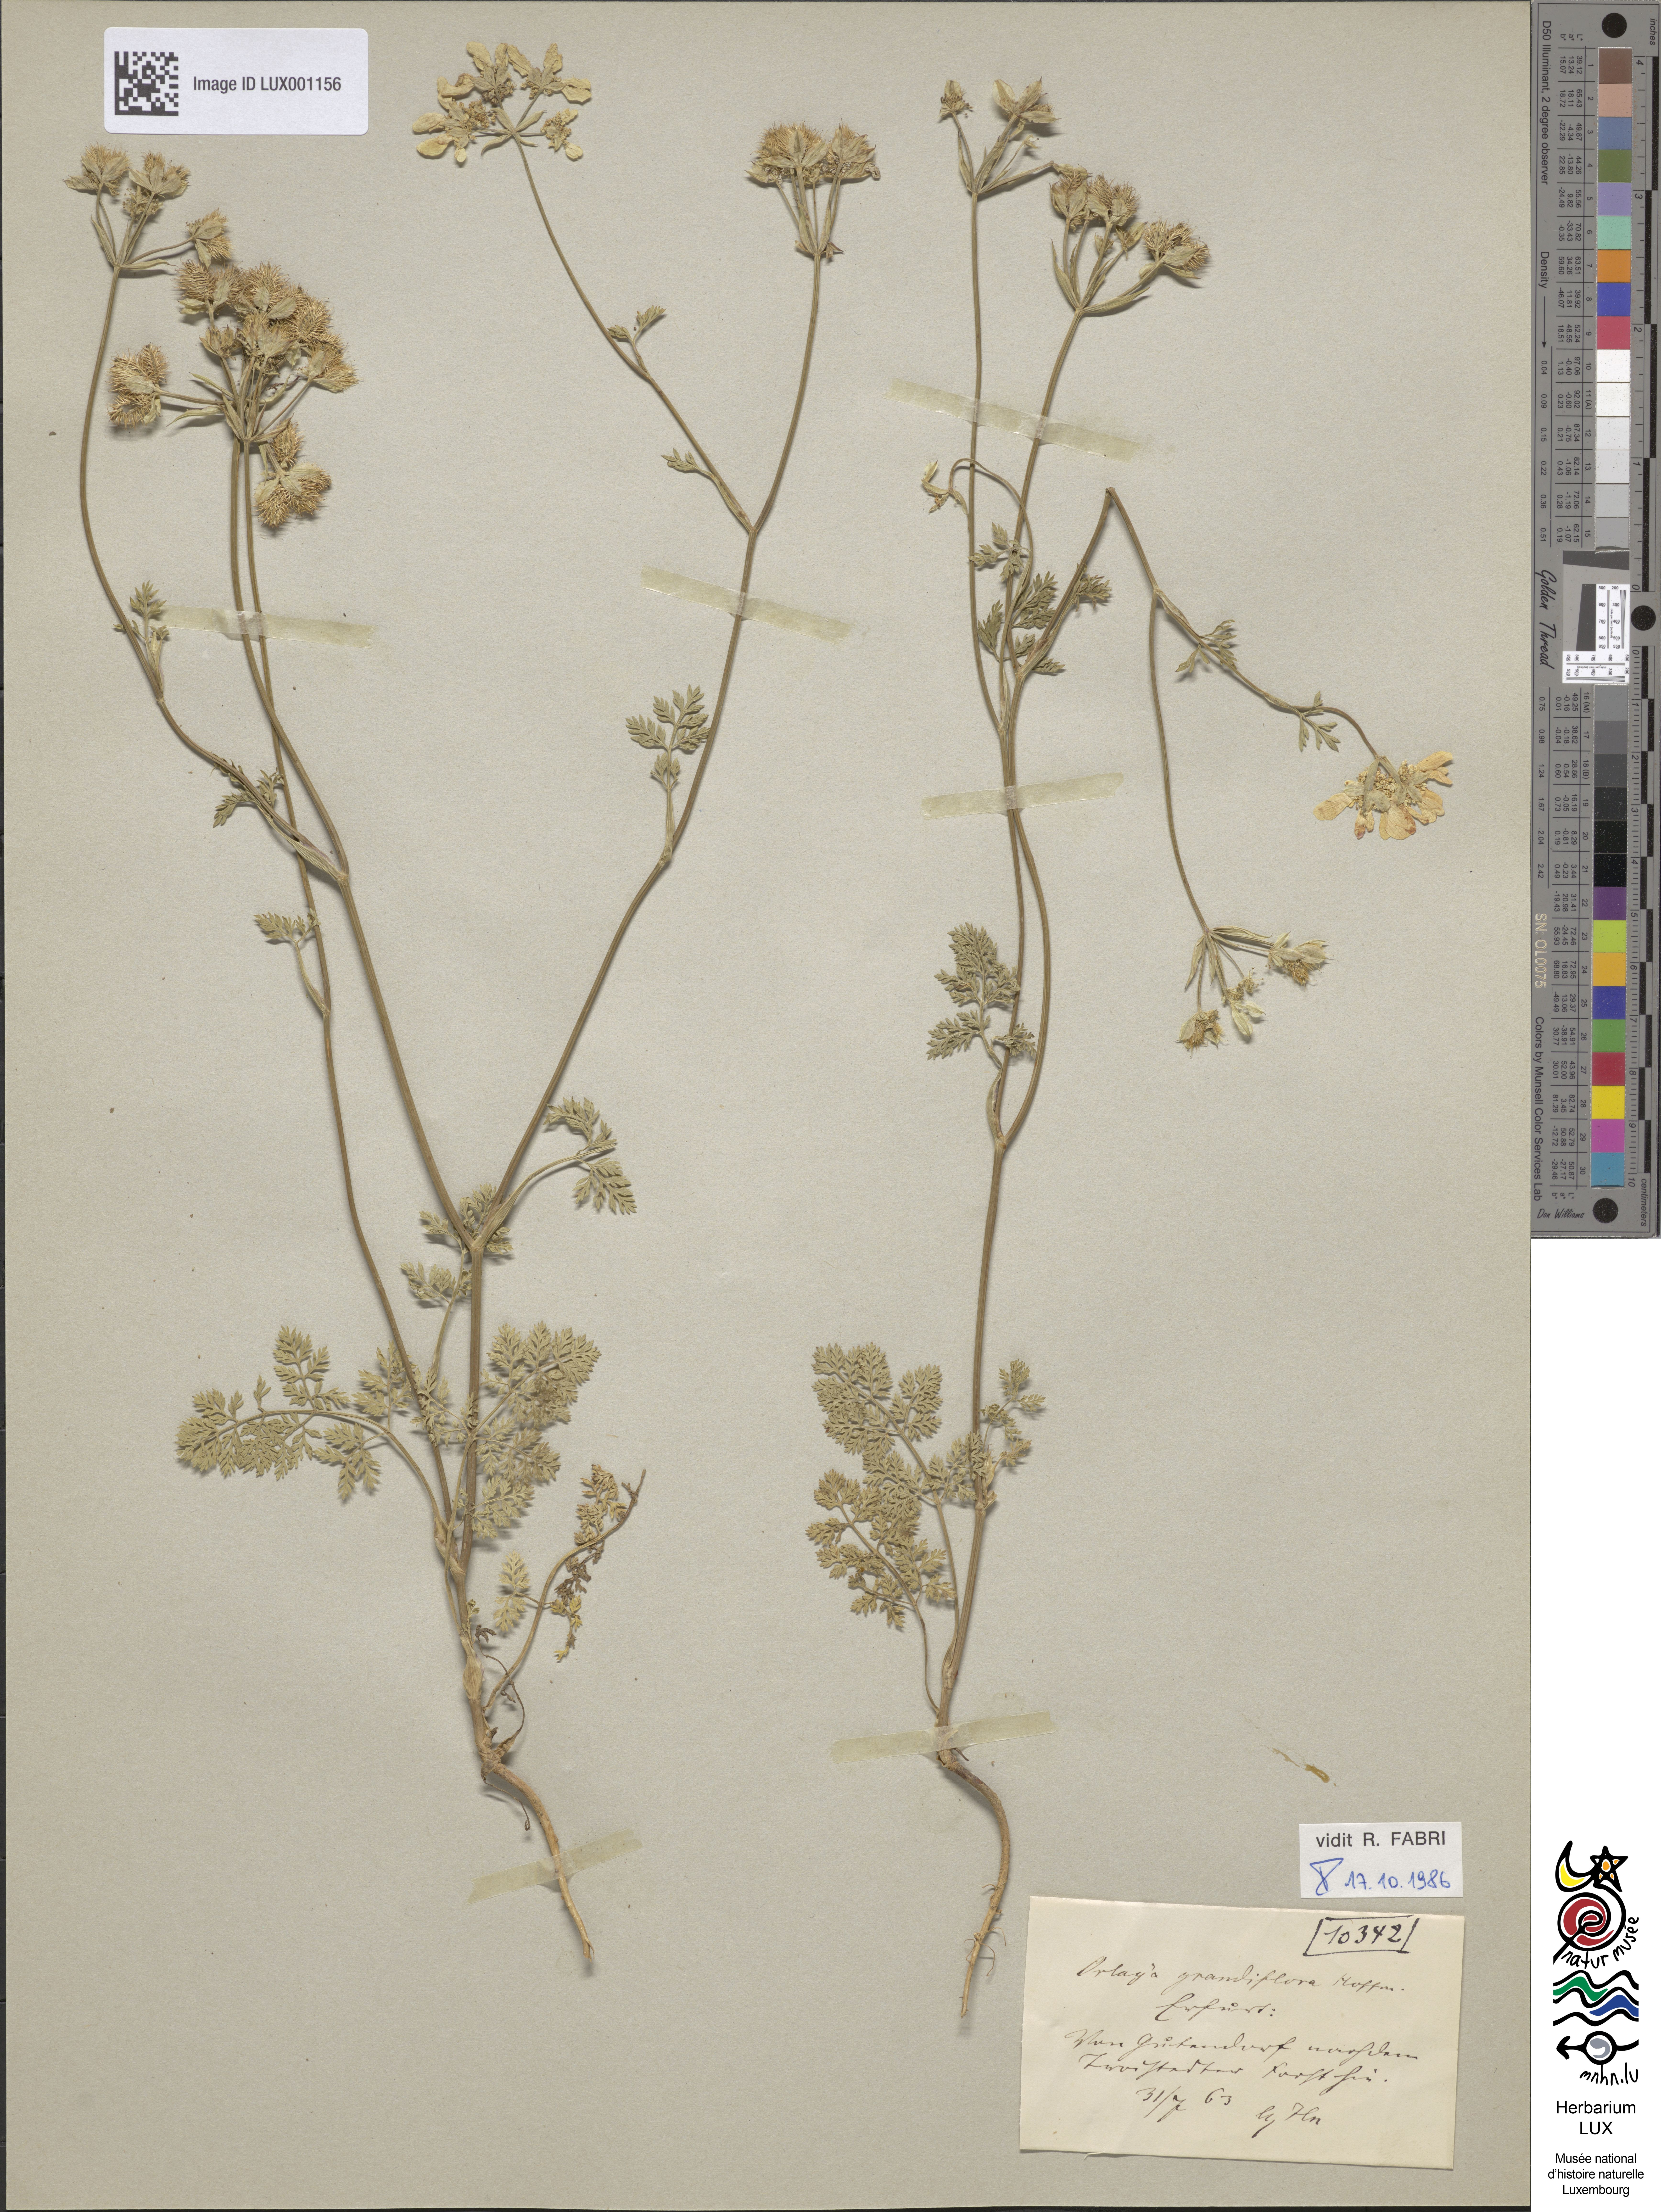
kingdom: Plantae
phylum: Tracheophyta
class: Magnoliopsida
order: Apiales
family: Apiaceae
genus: Orlaya
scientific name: Orlaya grandiflora
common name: White lace flower
